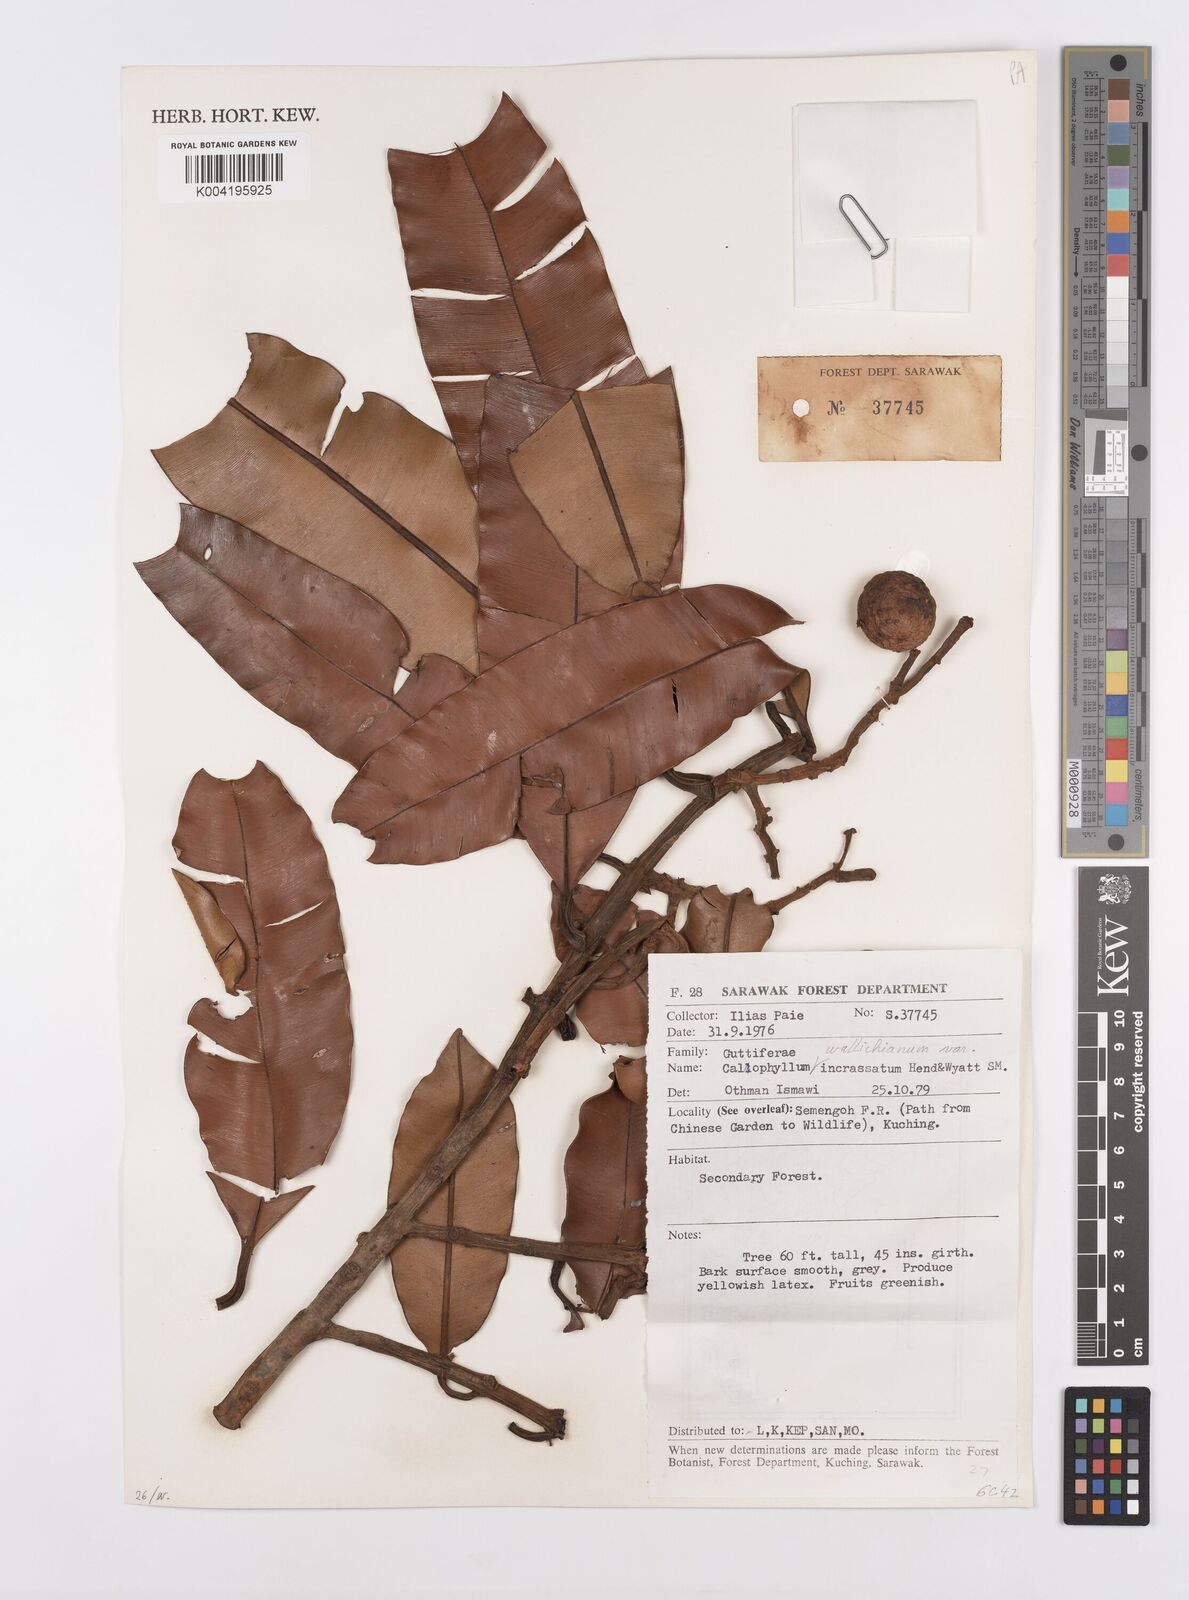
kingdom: Plantae
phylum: Tracheophyta
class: Magnoliopsida
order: Malpighiales
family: Calophyllaceae
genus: Calophyllum
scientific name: Calophyllum wallichiana
